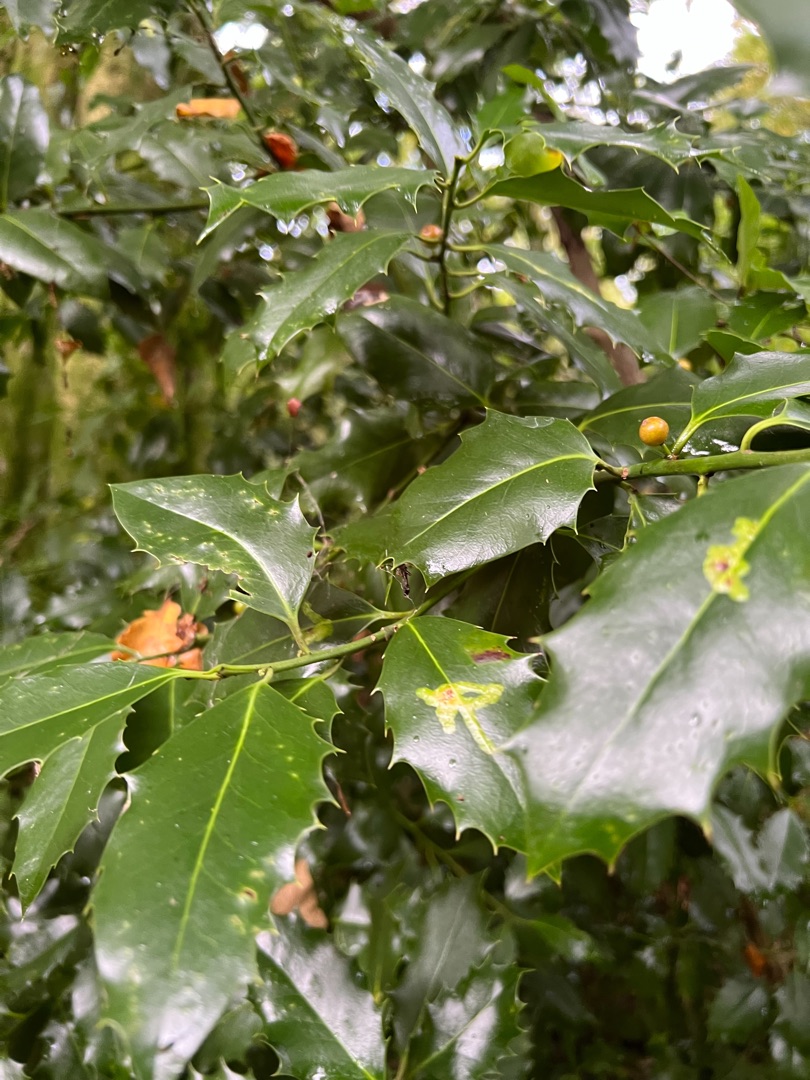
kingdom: Plantae
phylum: Tracheophyta
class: Magnoliopsida
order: Aquifoliales
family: Aquifoliaceae
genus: Ilex
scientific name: Ilex aquifolium
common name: Kristtorn
